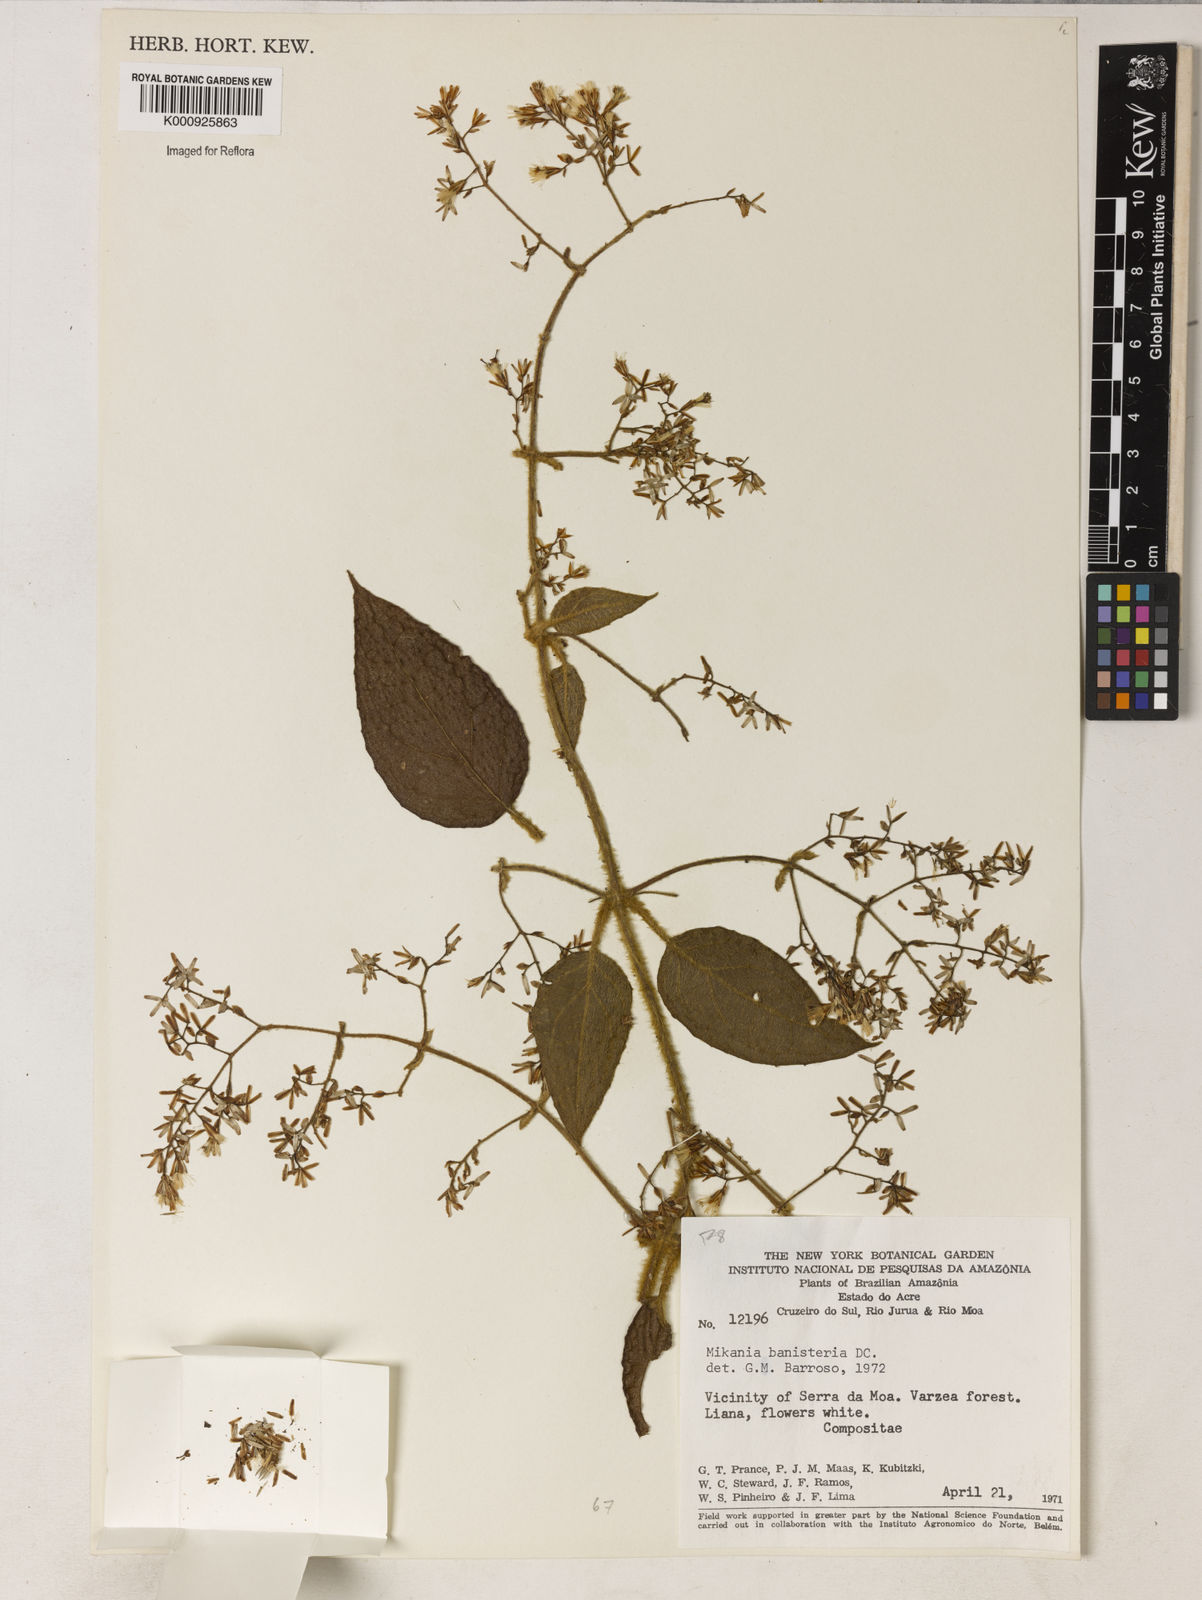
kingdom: Plantae
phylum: Tracheophyta
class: Magnoliopsida
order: Asterales
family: Asteraceae
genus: Mikania
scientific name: Mikania banisteriae
